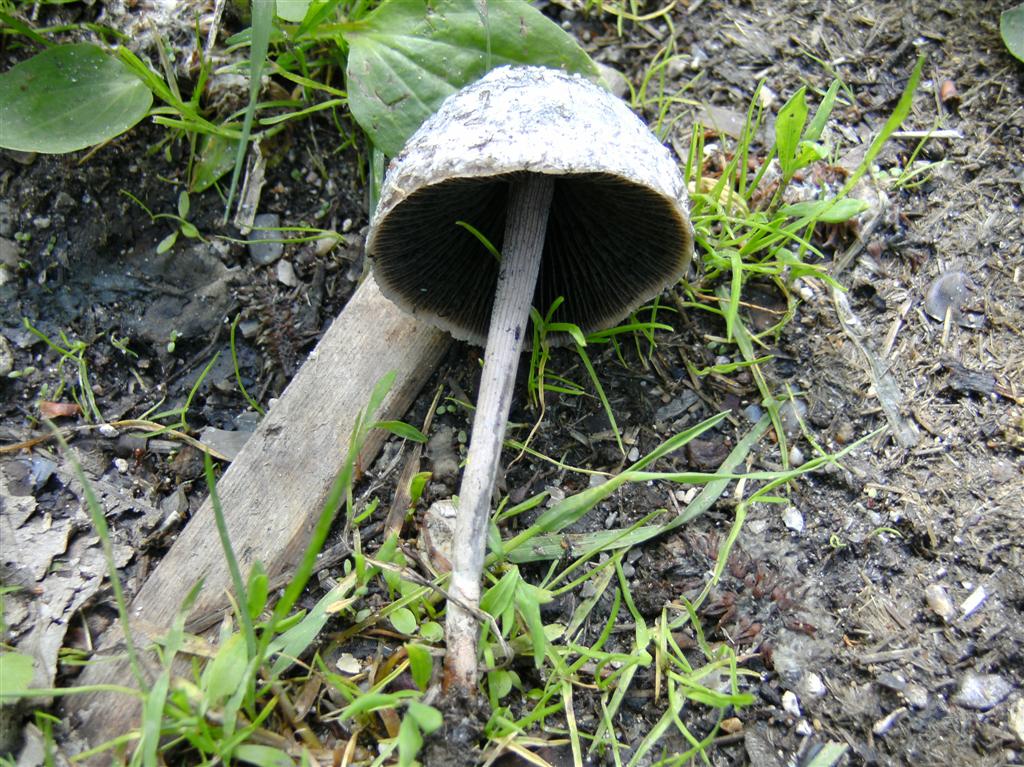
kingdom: Fungi
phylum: Basidiomycota
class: Agaricomycetes
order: Agaricales
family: Bolbitiaceae
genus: Panaeolus
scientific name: Panaeolus papilionaceus
